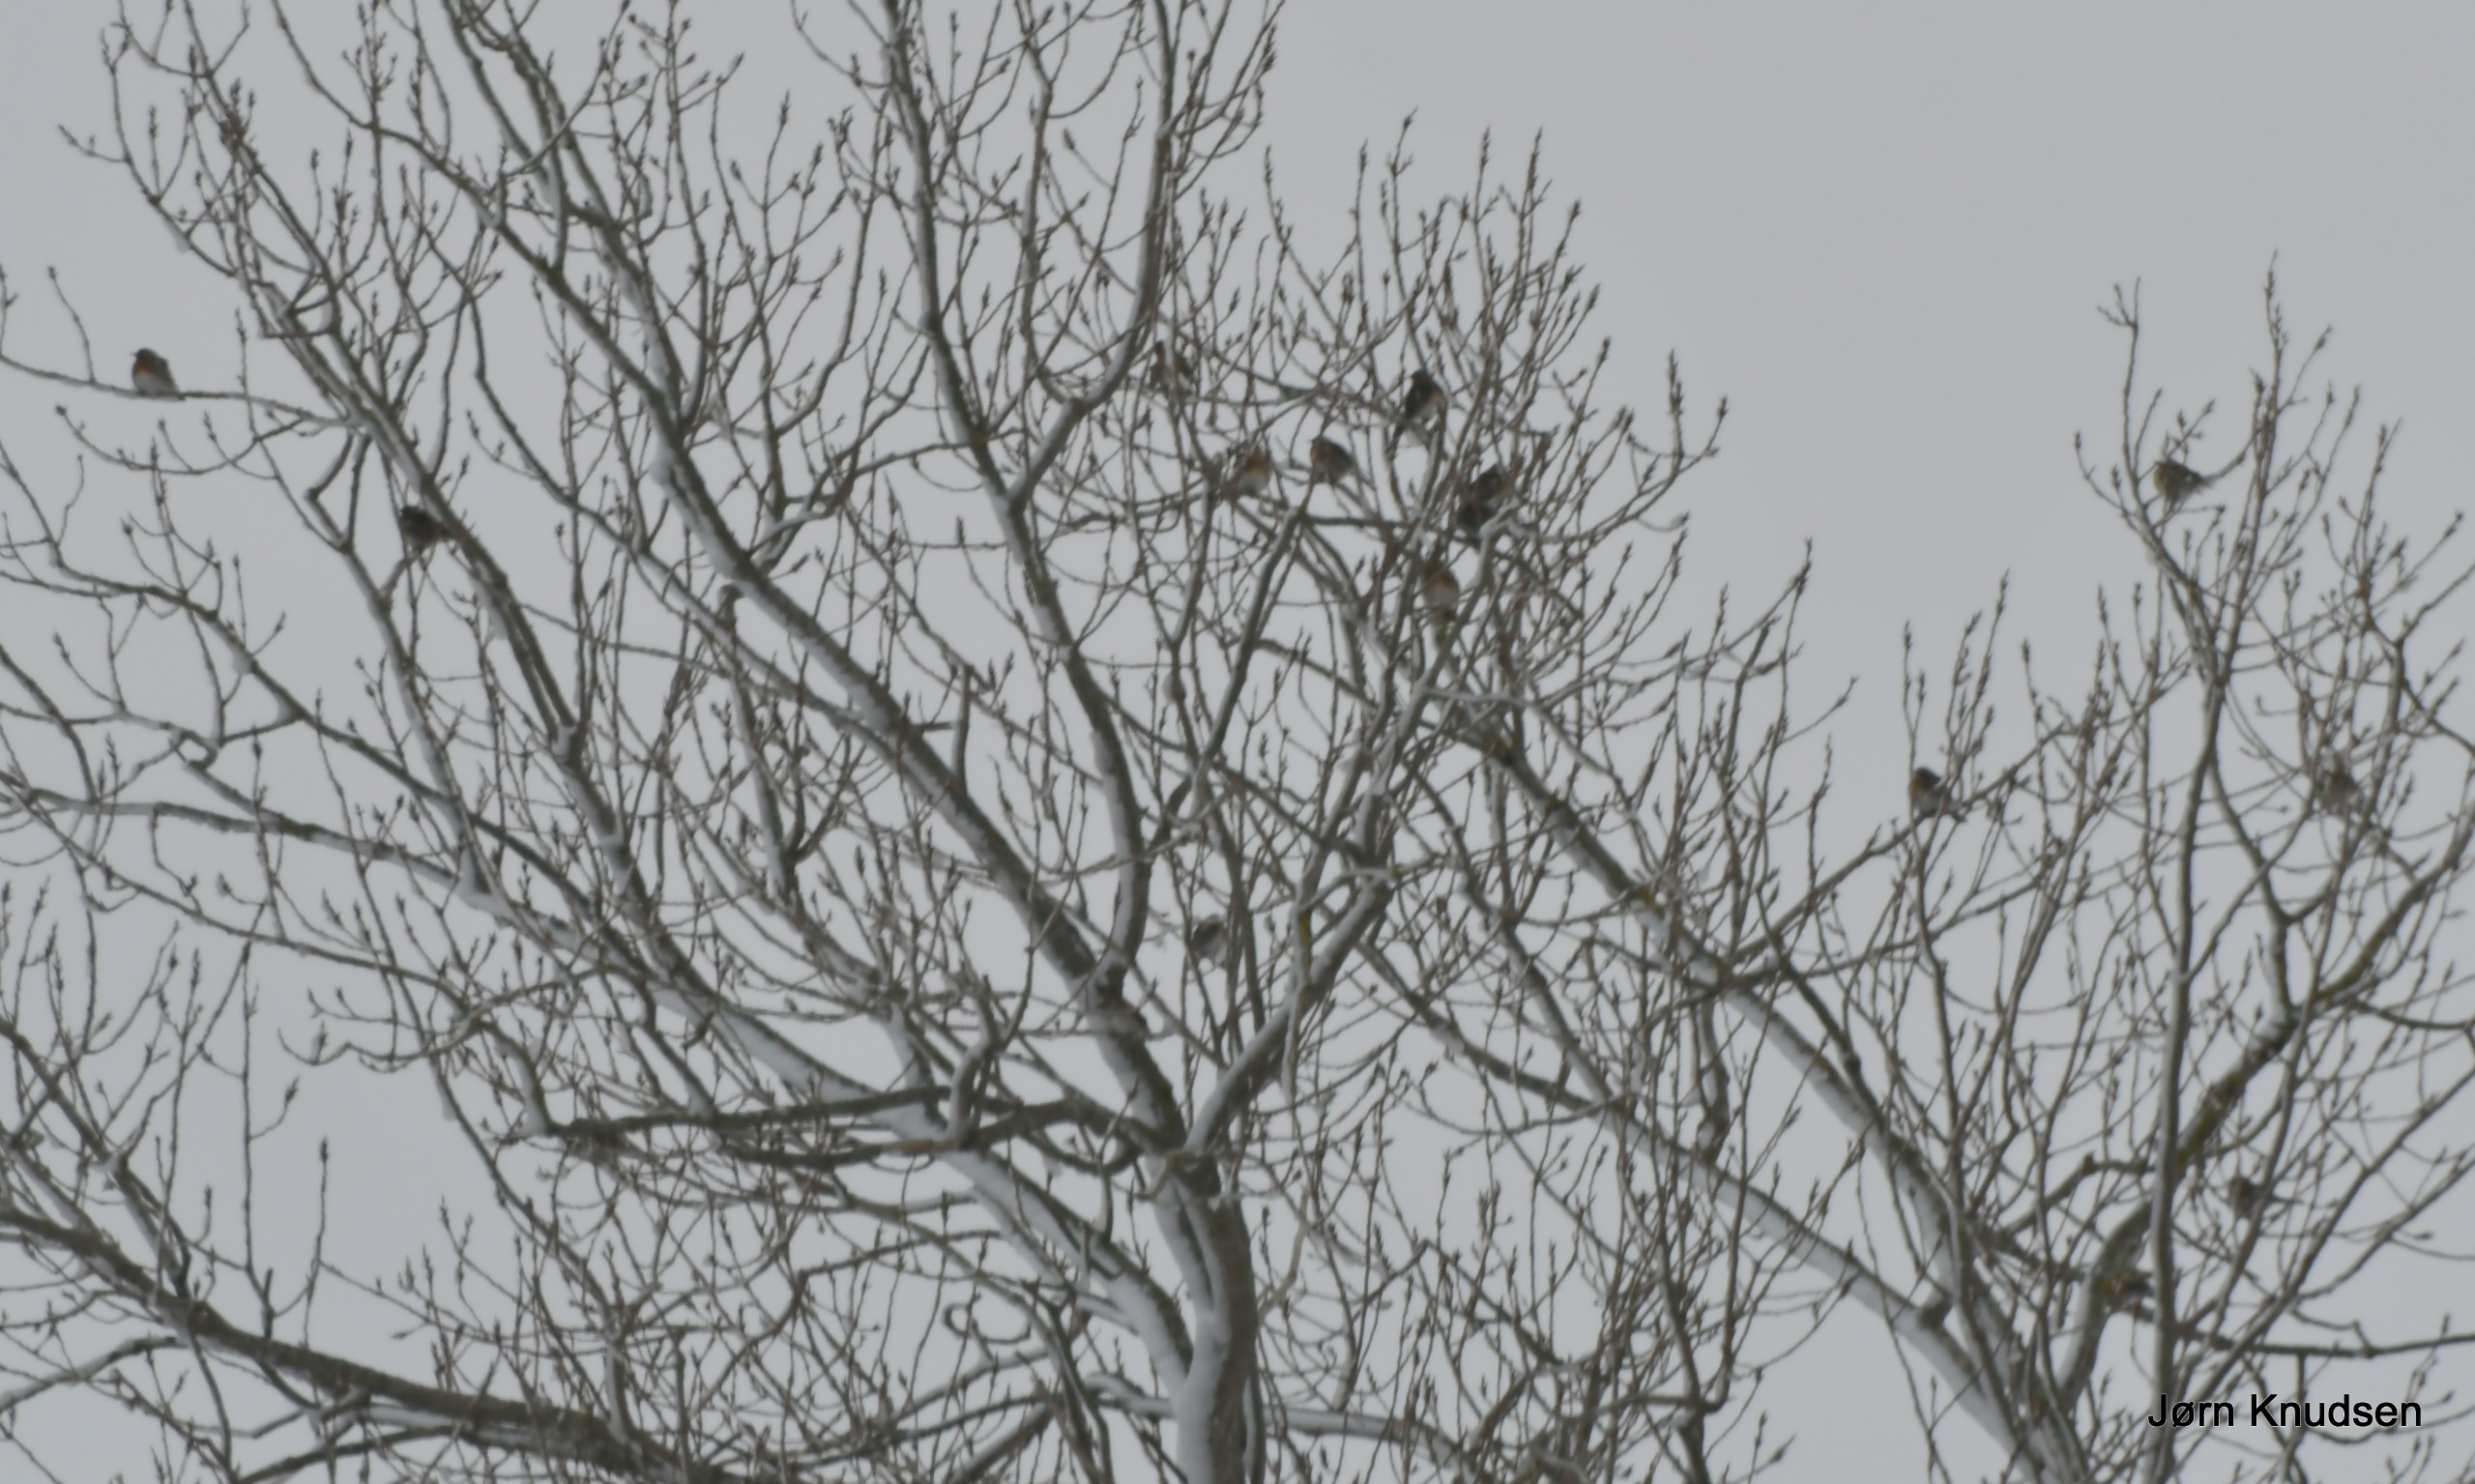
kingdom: Animalia
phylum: Chordata
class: Aves
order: Passeriformes
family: Turdidae
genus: Turdus
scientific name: Turdus iliacus
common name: Vindrossel
